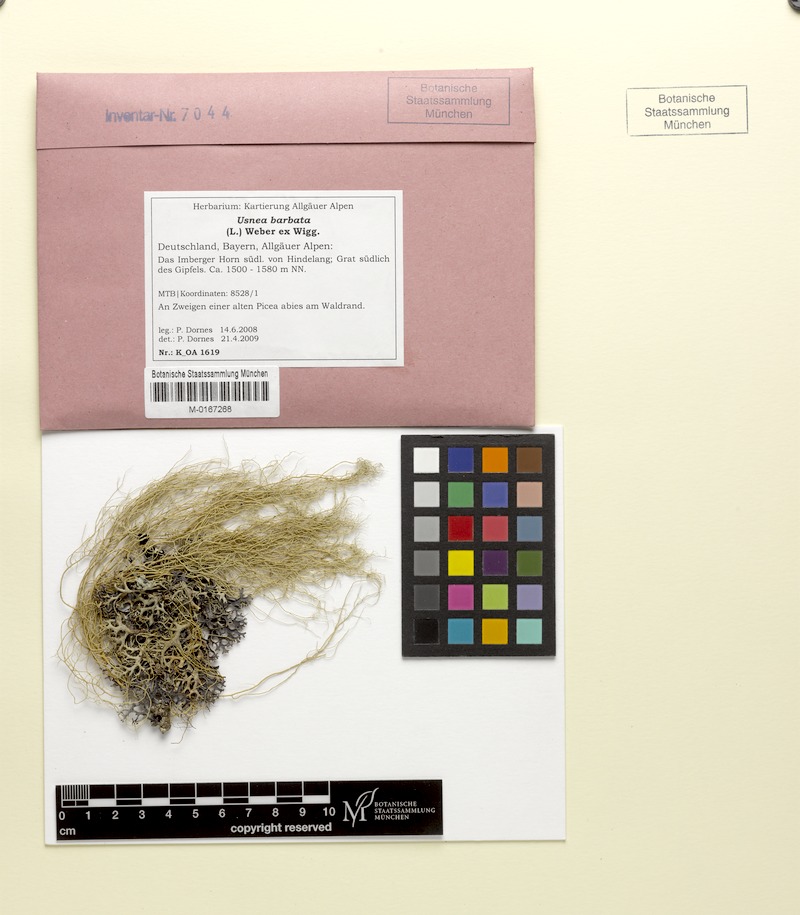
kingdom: Fungi
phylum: Ascomycota
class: Lecanoromycetes
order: Lecanorales
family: Parmeliaceae
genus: Usnea
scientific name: Usnea barbata
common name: Old man's beard lichen
